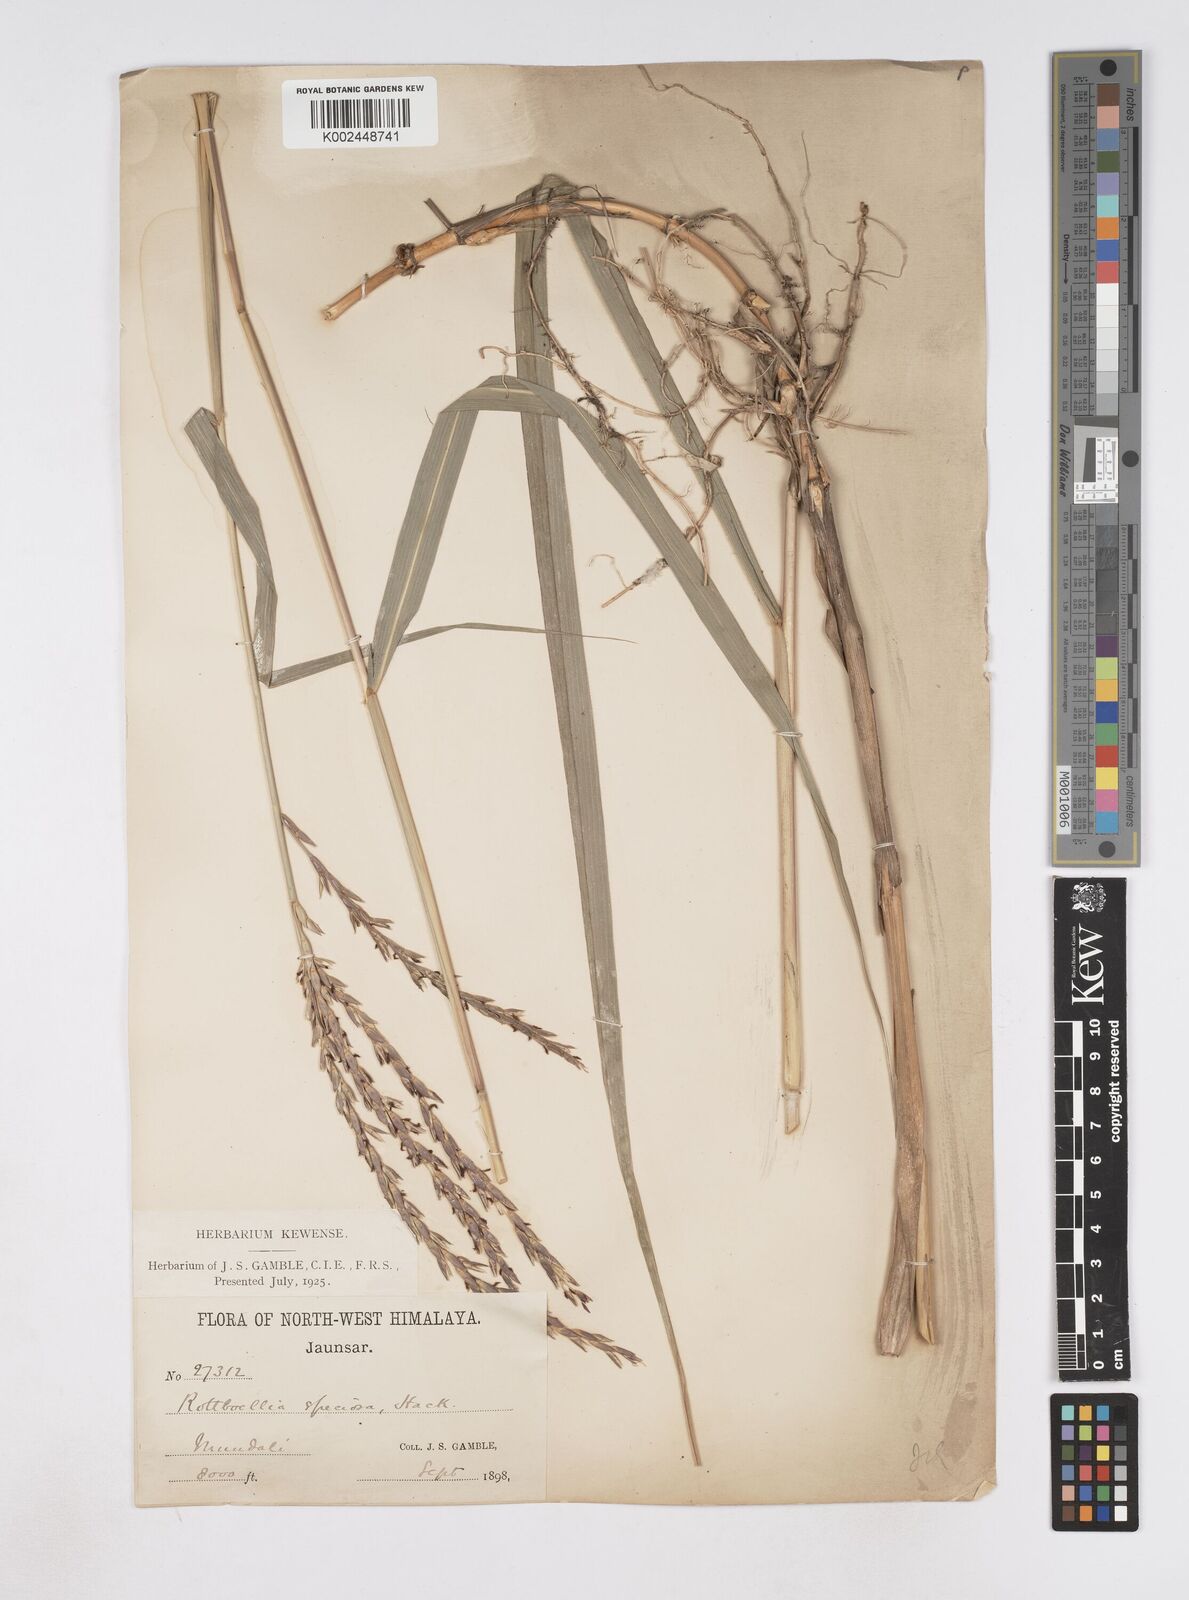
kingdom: Plantae
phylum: Tracheophyta
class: Liliopsida
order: Poales
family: Poaceae
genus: Phacelurus
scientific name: Phacelurus speciosus
